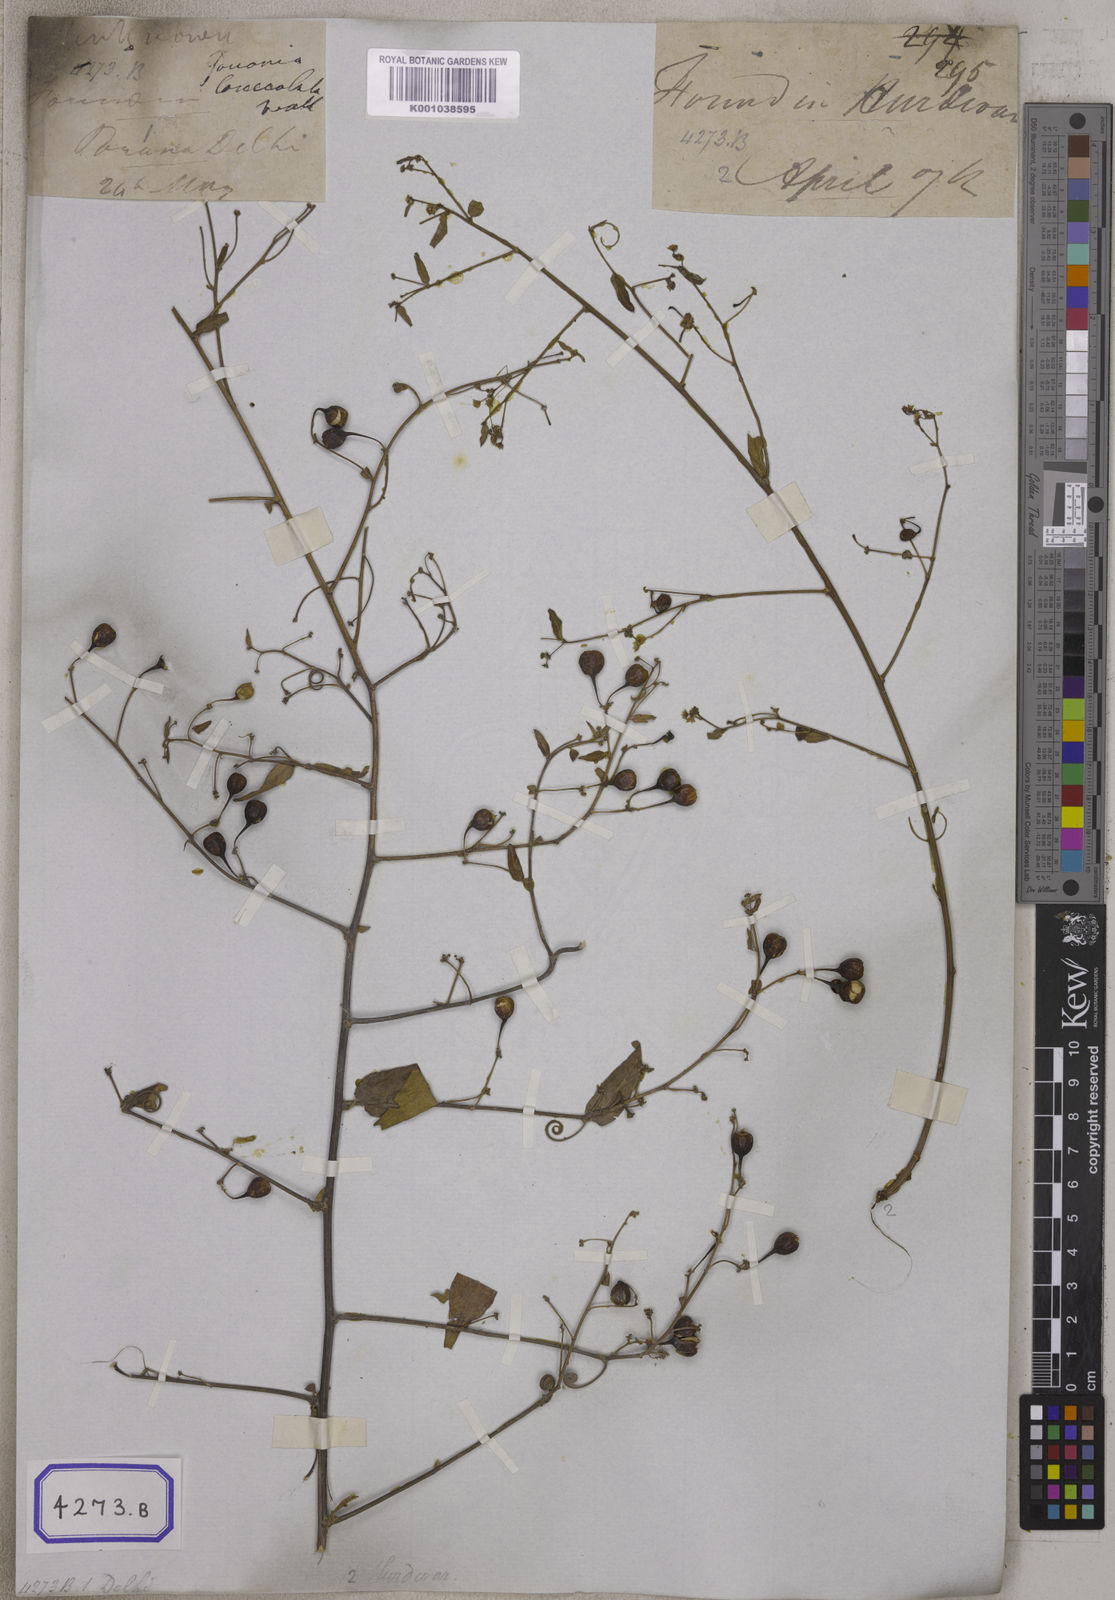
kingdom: Plantae
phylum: Tracheophyta
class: Magnoliopsida
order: Rosales
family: Rhamnaceae
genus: Helinus
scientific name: Helinus lanceolatus
